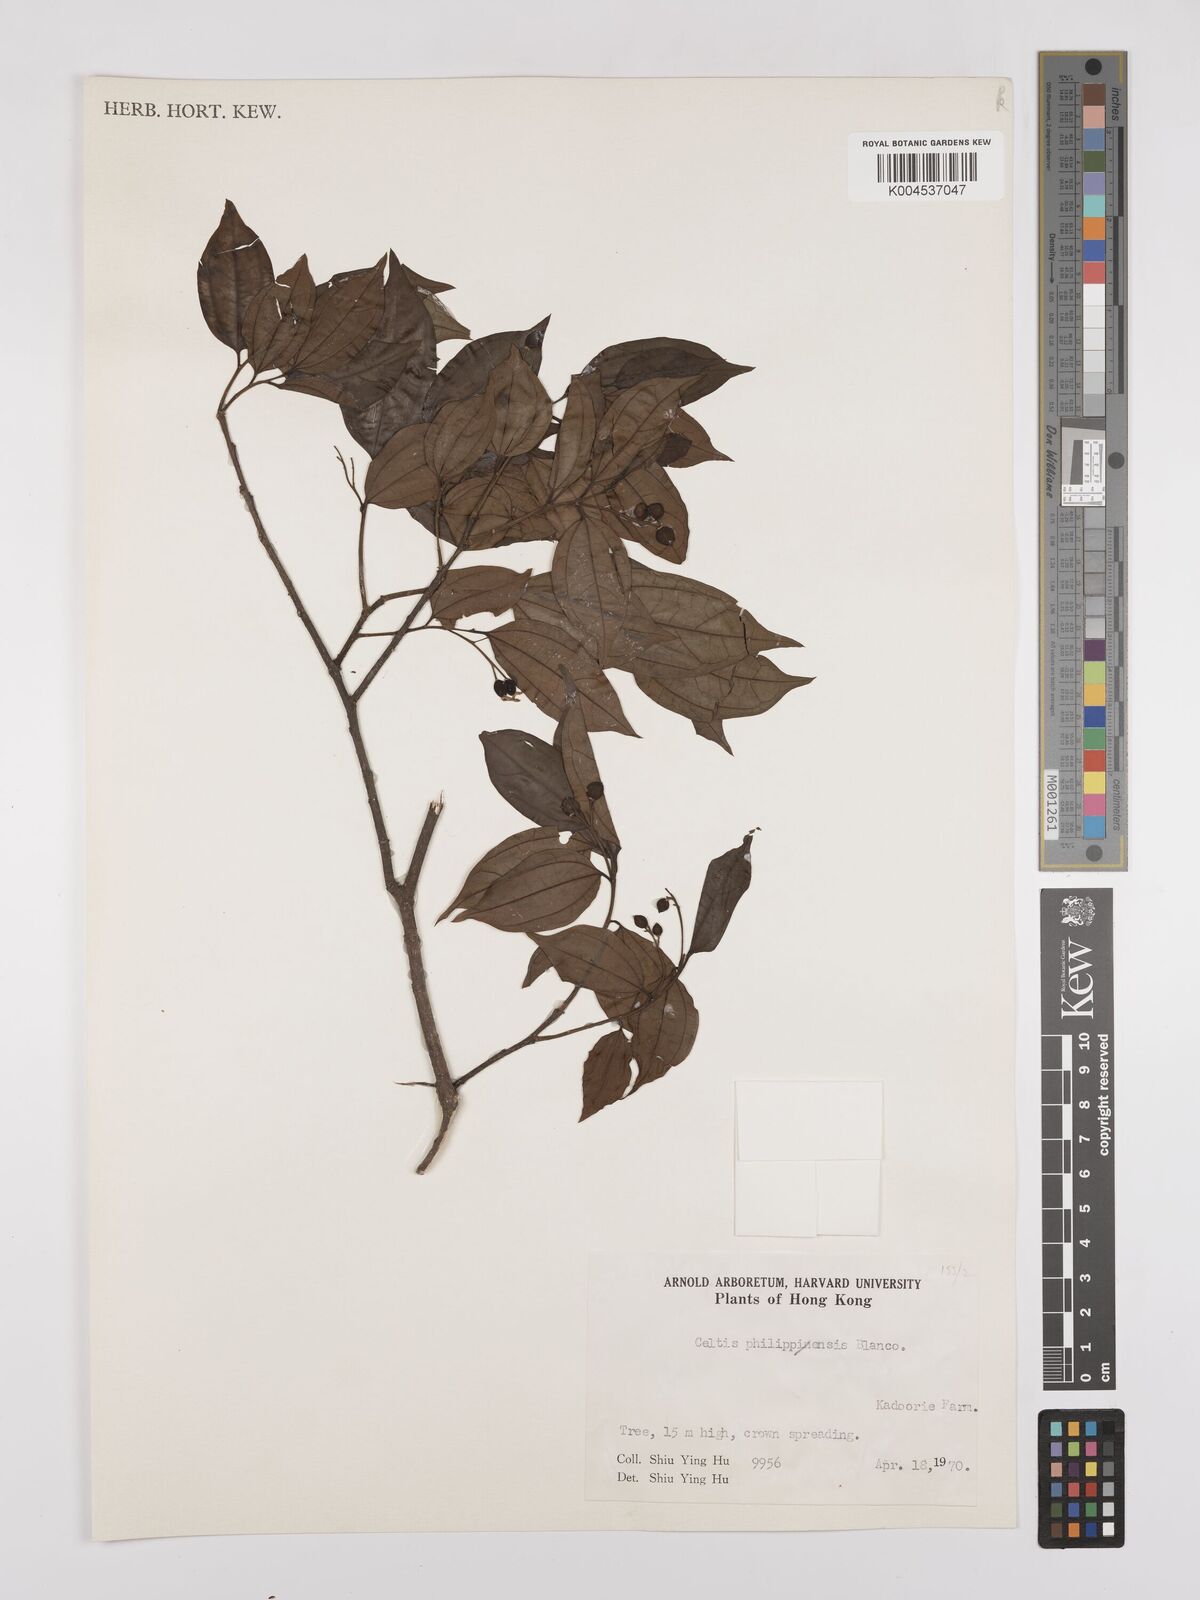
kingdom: Plantae
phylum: Tracheophyta
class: Magnoliopsida
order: Rosales
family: Cannabaceae
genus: Celtis
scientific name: Celtis timorensis
